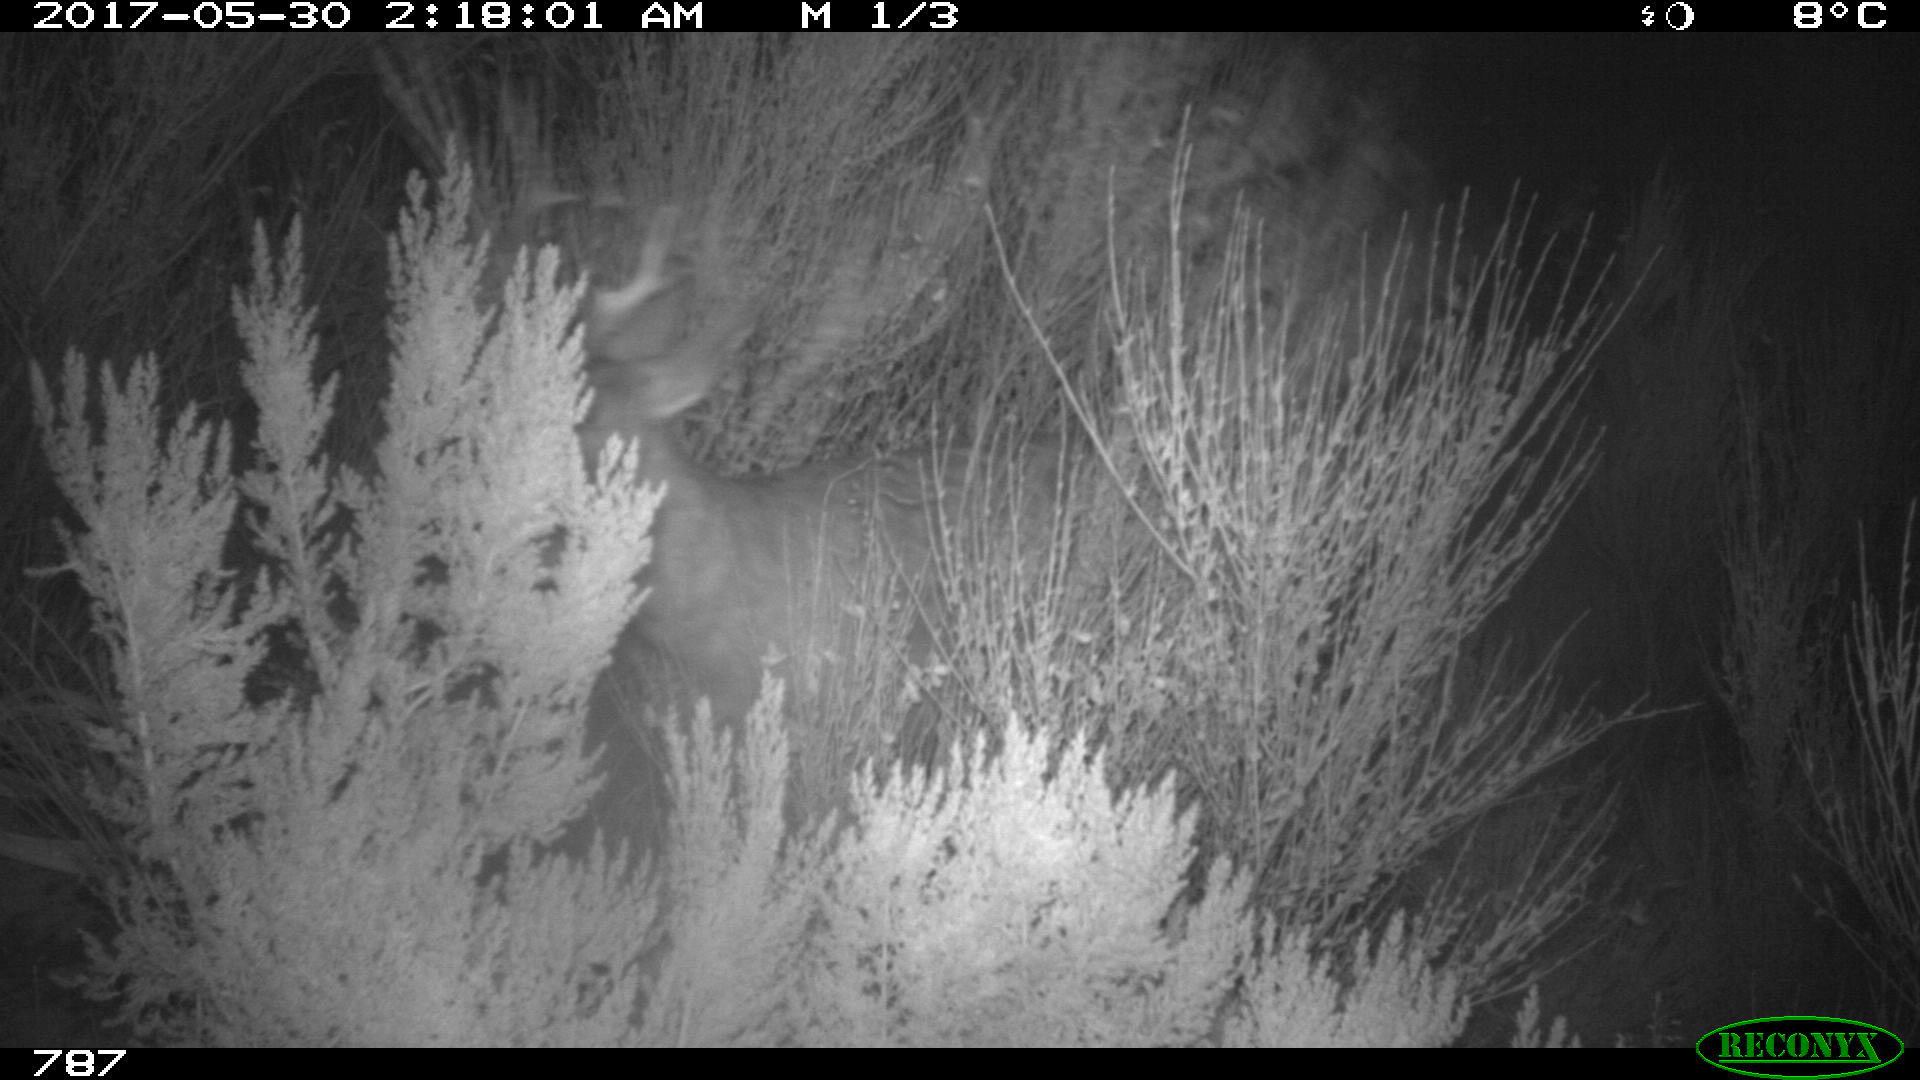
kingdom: Animalia
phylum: Chordata
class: Mammalia
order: Artiodactyla
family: Cervidae
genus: Capreolus
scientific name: Capreolus capreolus
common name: Western roe deer
